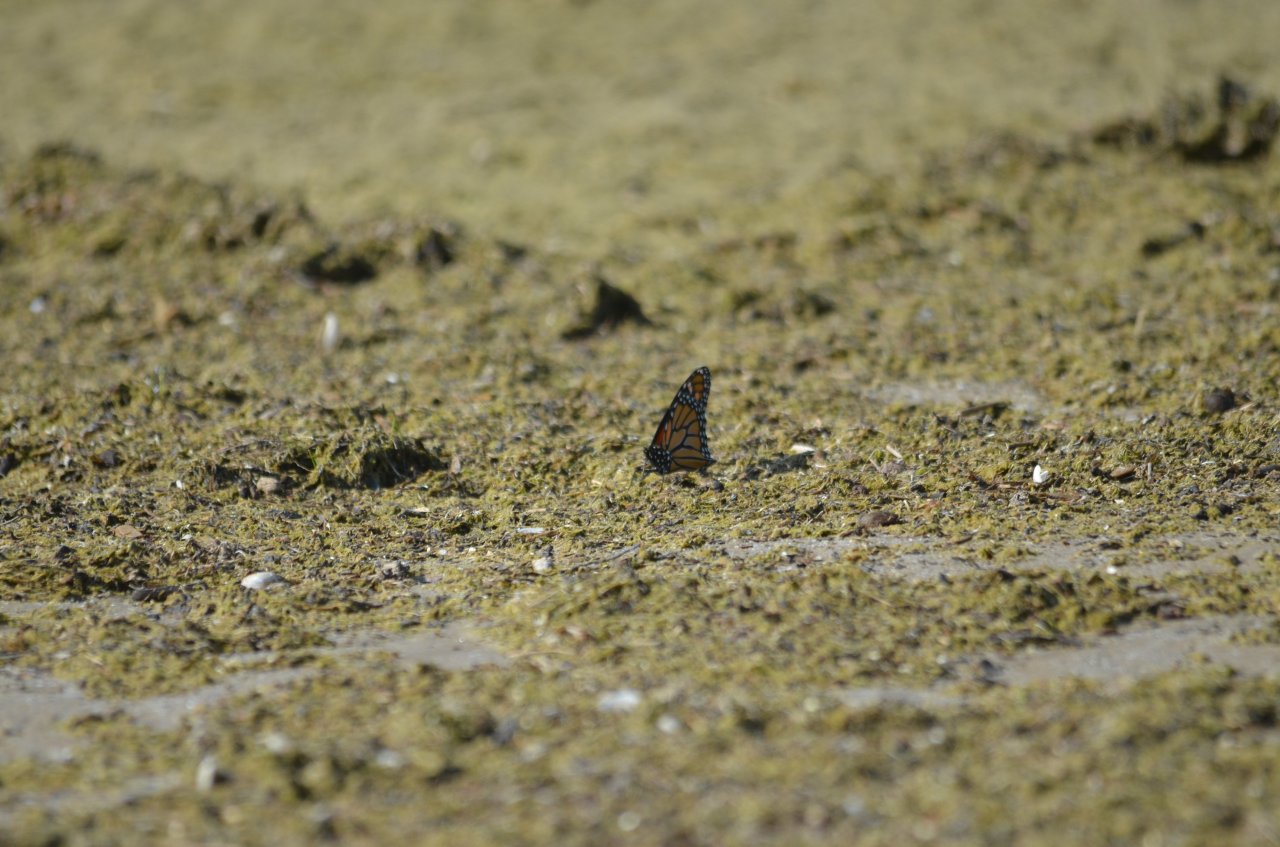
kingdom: Animalia
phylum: Arthropoda
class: Insecta
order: Lepidoptera
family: Nymphalidae
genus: Danaus
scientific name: Danaus plexippus
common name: Monarch
